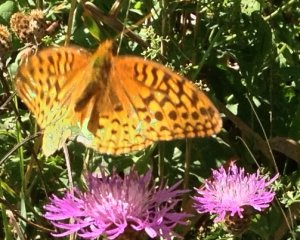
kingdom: Animalia
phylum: Arthropoda
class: Insecta
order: Lepidoptera
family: Nymphalidae
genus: Speyeria
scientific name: Speyeria cybele
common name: Great Spangled Fritillary
